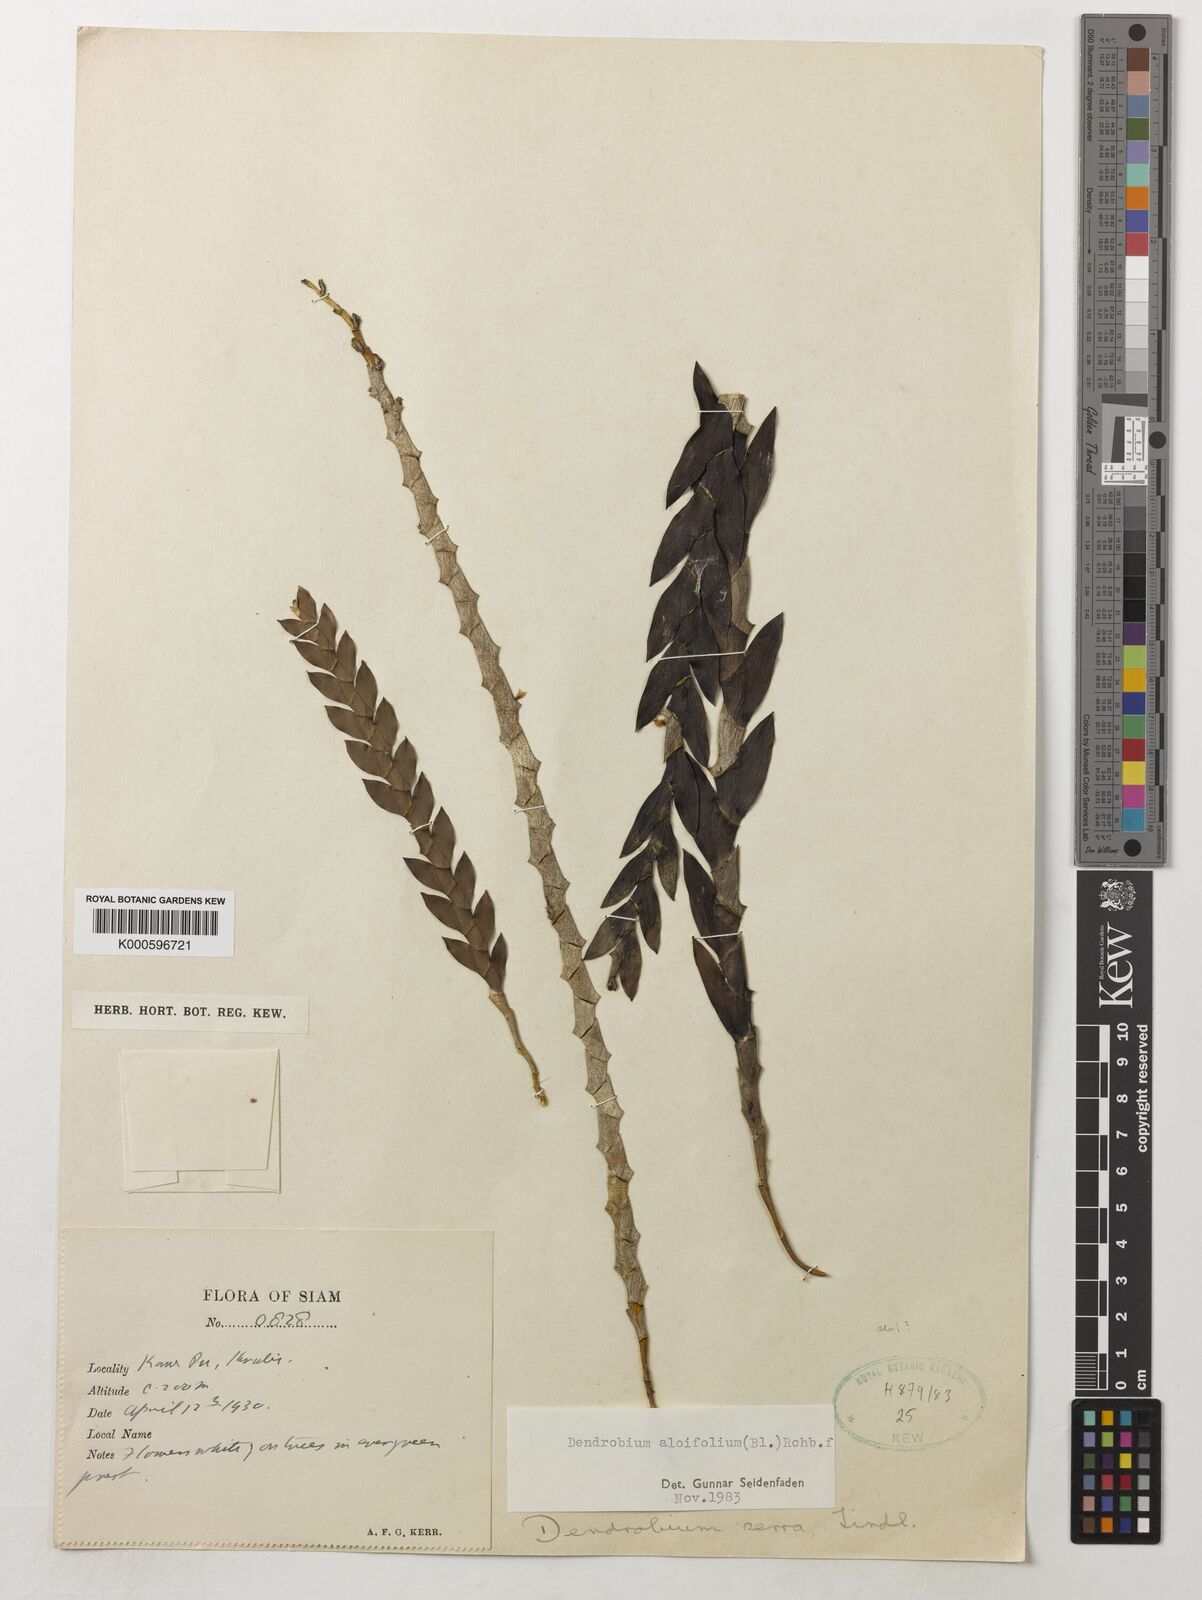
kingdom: Plantae
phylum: Tracheophyta
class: Liliopsida
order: Asparagales
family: Orchidaceae
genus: Dendrobium
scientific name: Dendrobium aloifolium
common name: Aloe-like dendrobium
